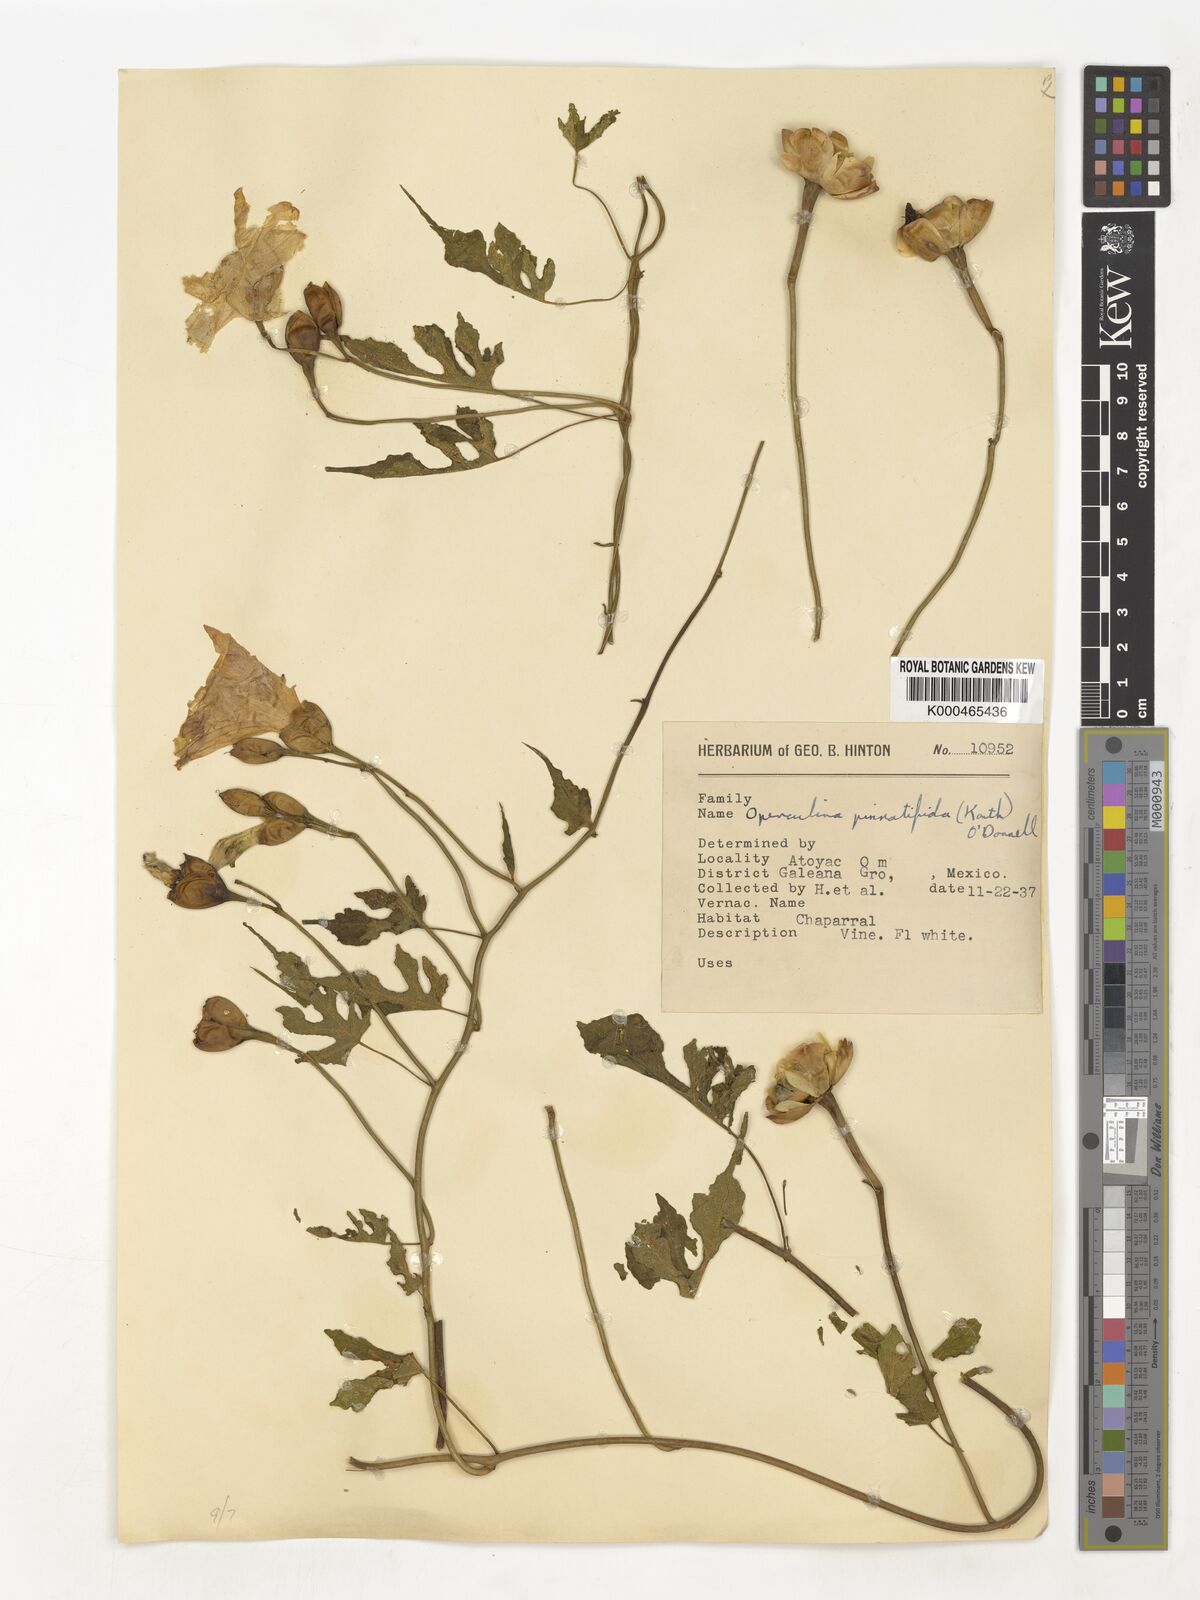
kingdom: Plantae
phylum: Tracheophyta
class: Magnoliopsida
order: Solanales
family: Convolvulaceae
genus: Operculina
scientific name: Operculina
